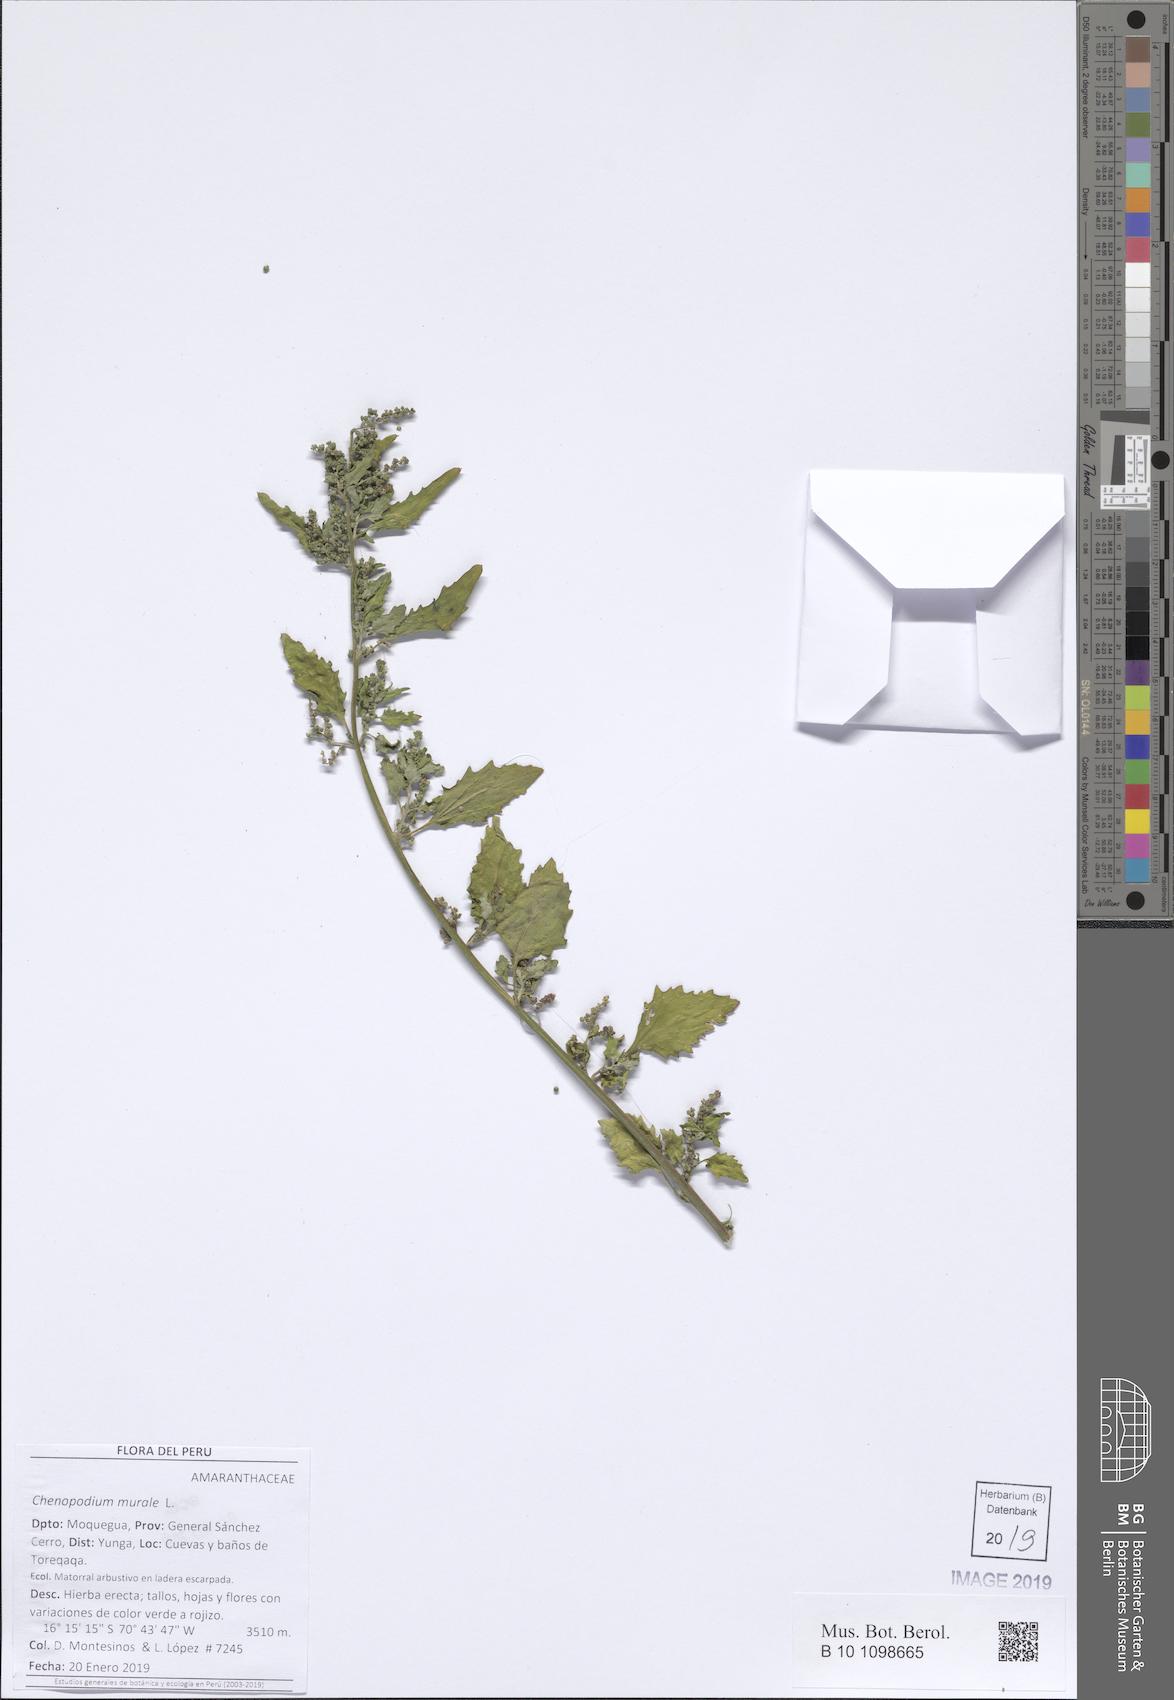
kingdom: Plantae
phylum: Tracheophyta
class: Magnoliopsida
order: Caryophyllales
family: Amaranthaceae
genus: Chenopodiastrum
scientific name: Chenopodiastrum murale
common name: Sowbane
